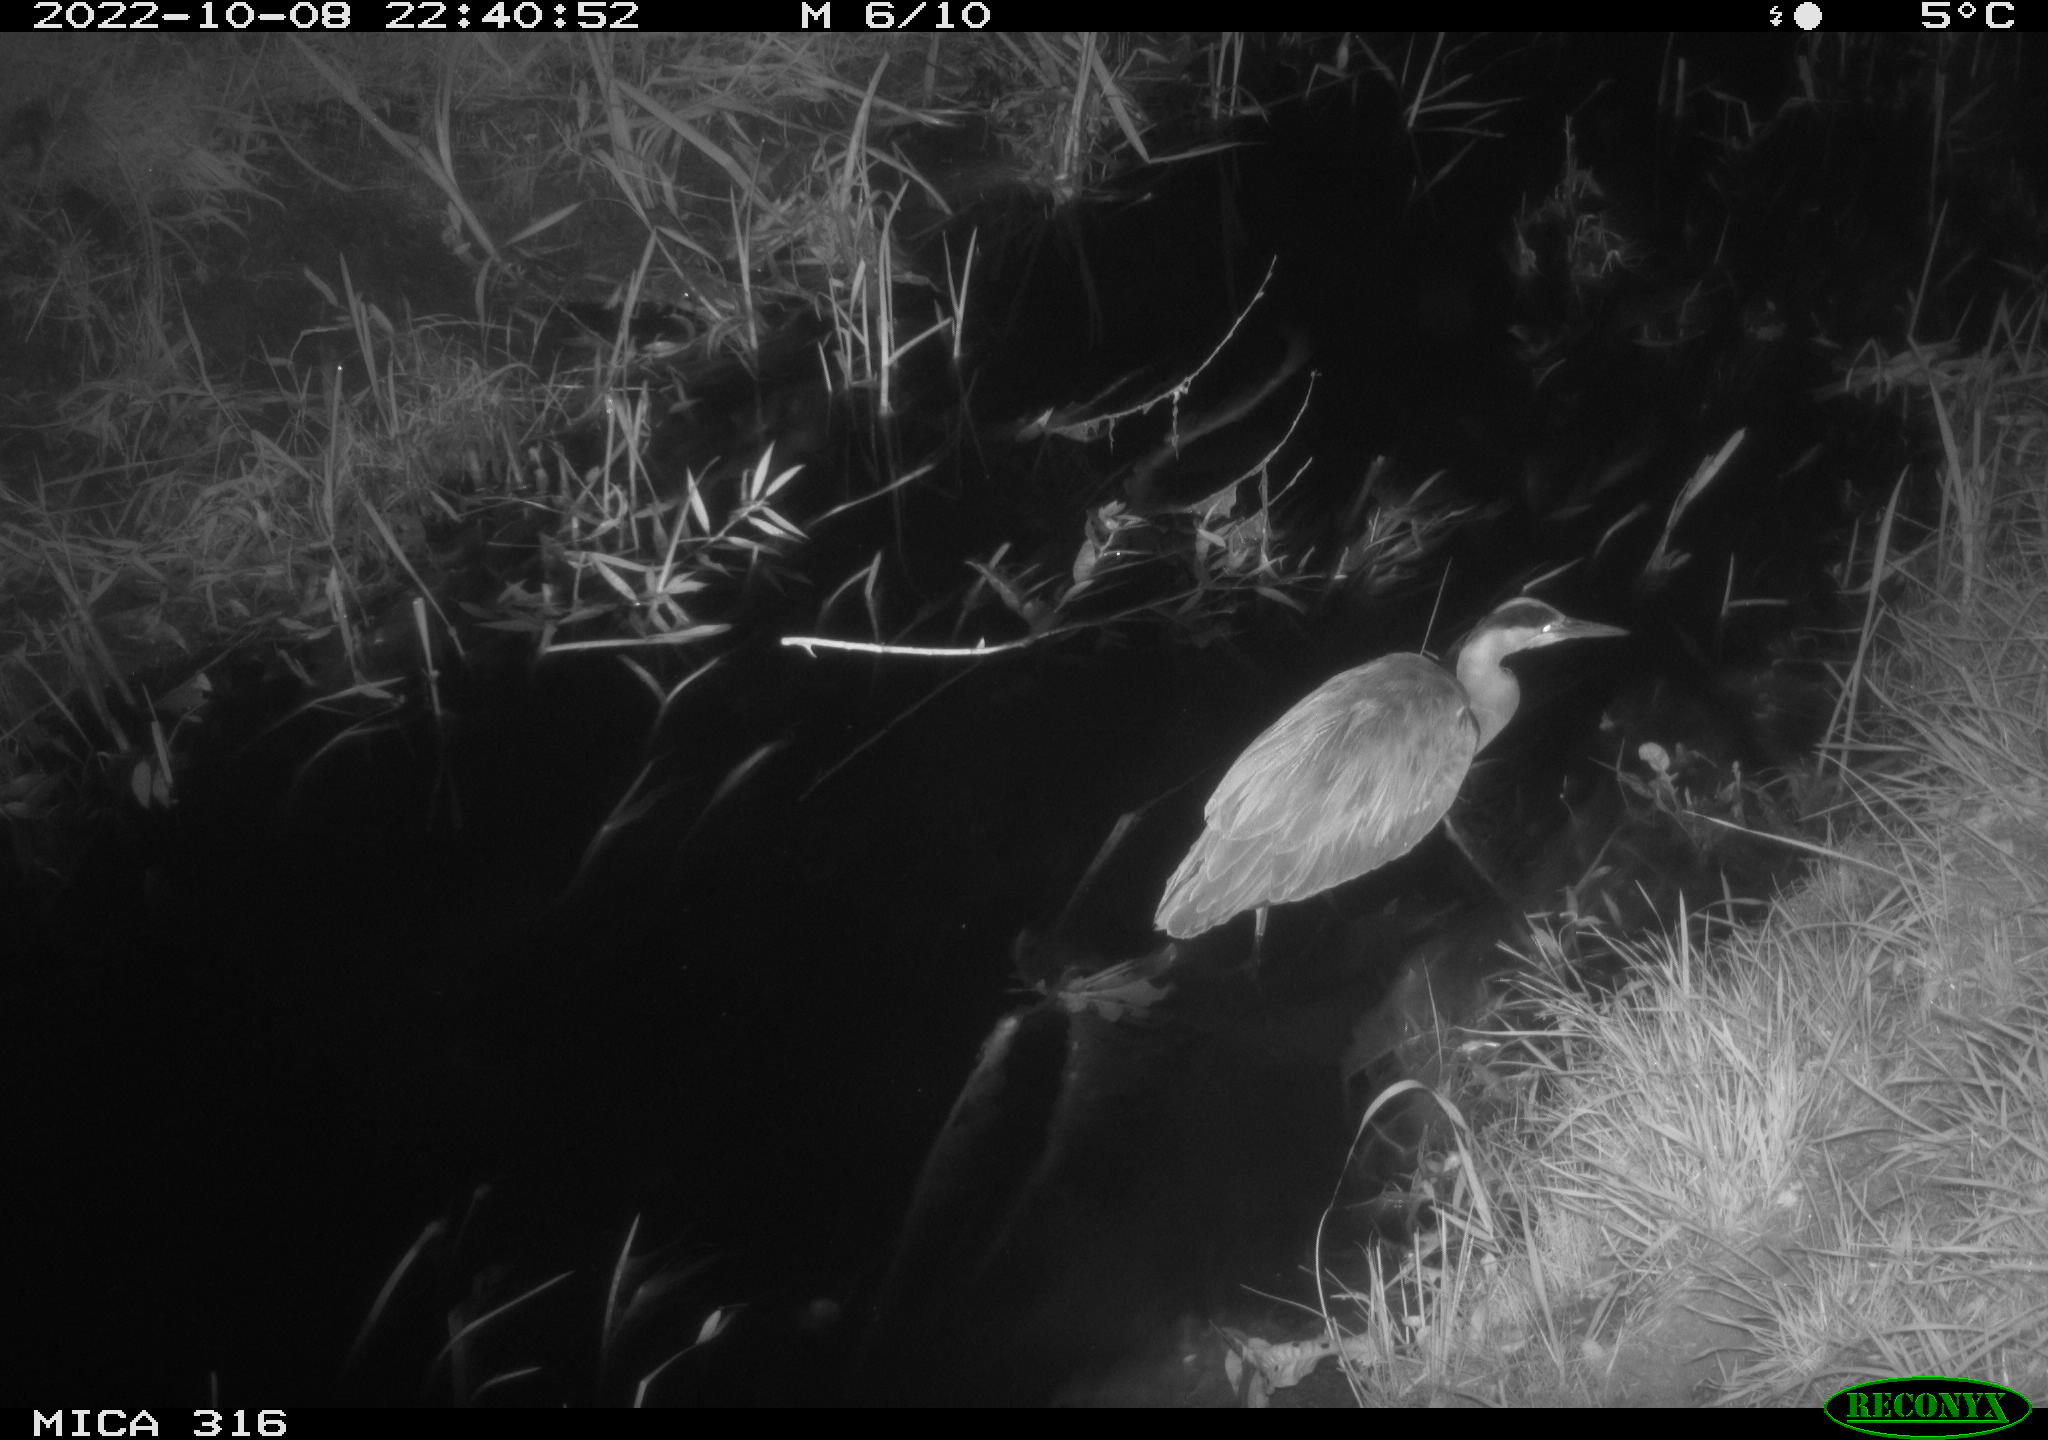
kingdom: Animalia
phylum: Chordata
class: Aves
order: Pelecaniformes
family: Ardeidae
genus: Ardea
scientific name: Ardea cinerea
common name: Grey heron
